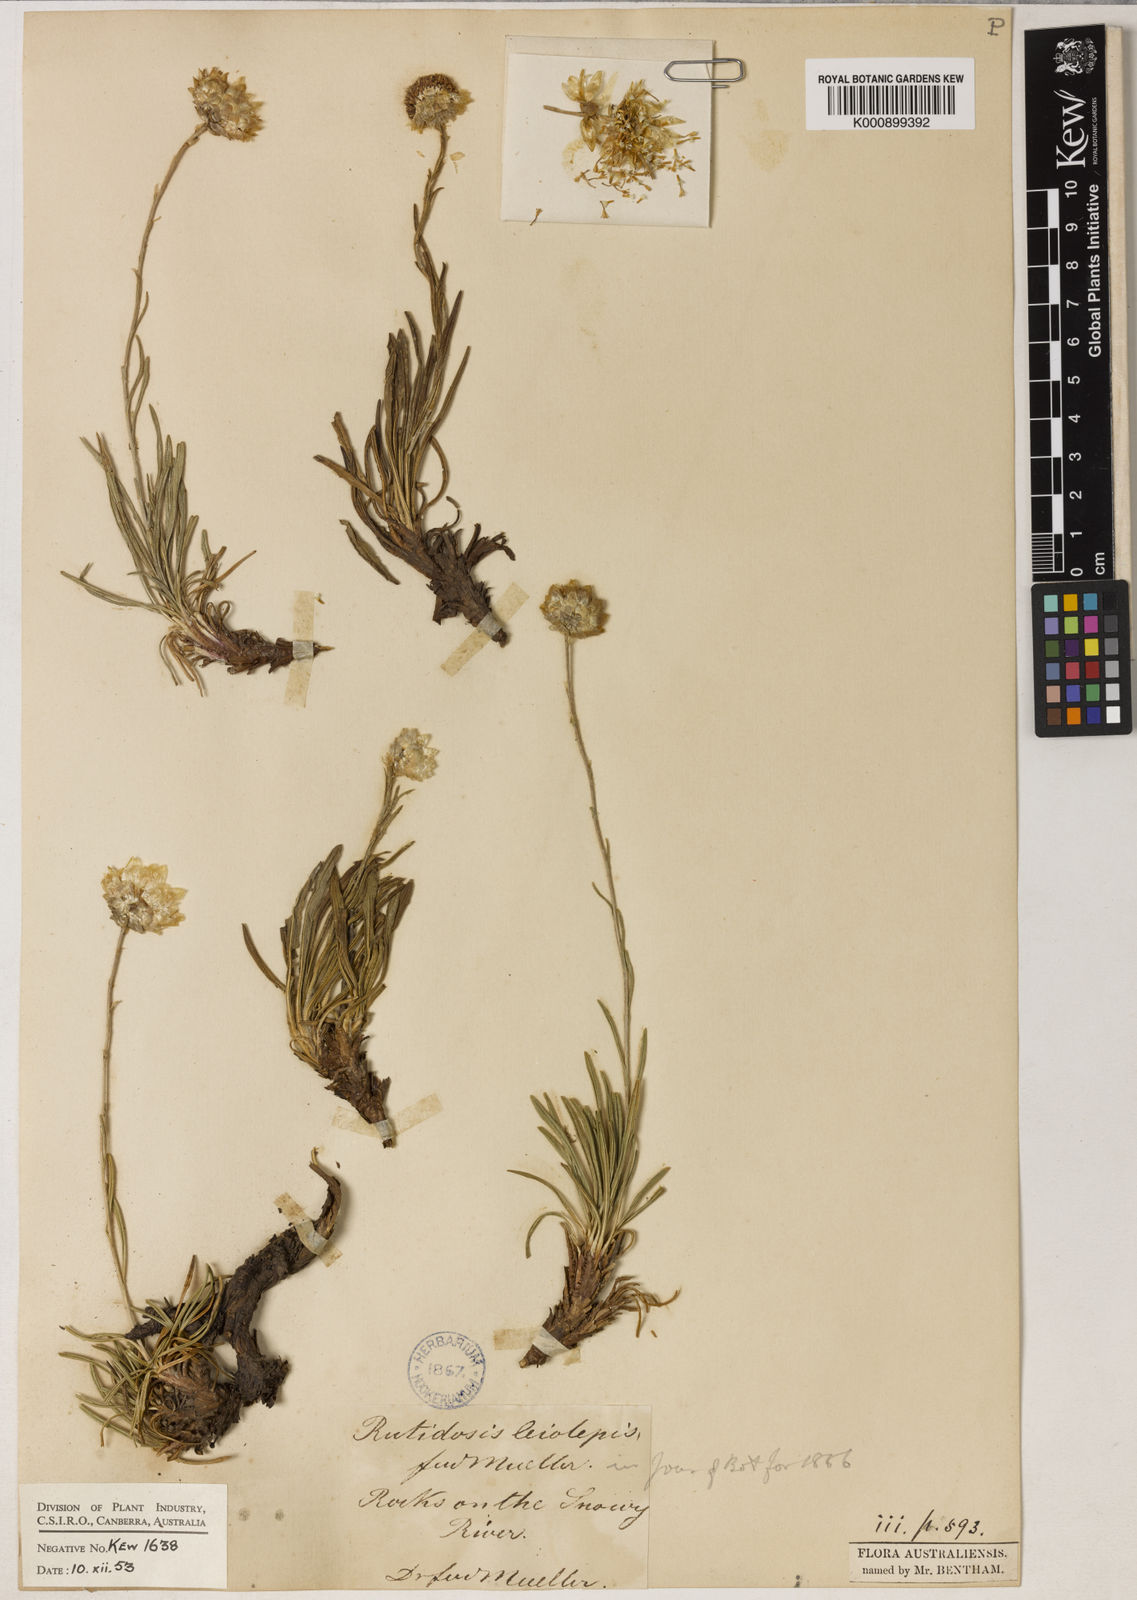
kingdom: Plantae
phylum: Tracheophyta
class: Magnoliopsida
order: Asterales
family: Asteraceae
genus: Rutidosis
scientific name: Rutidosis leiolepis
